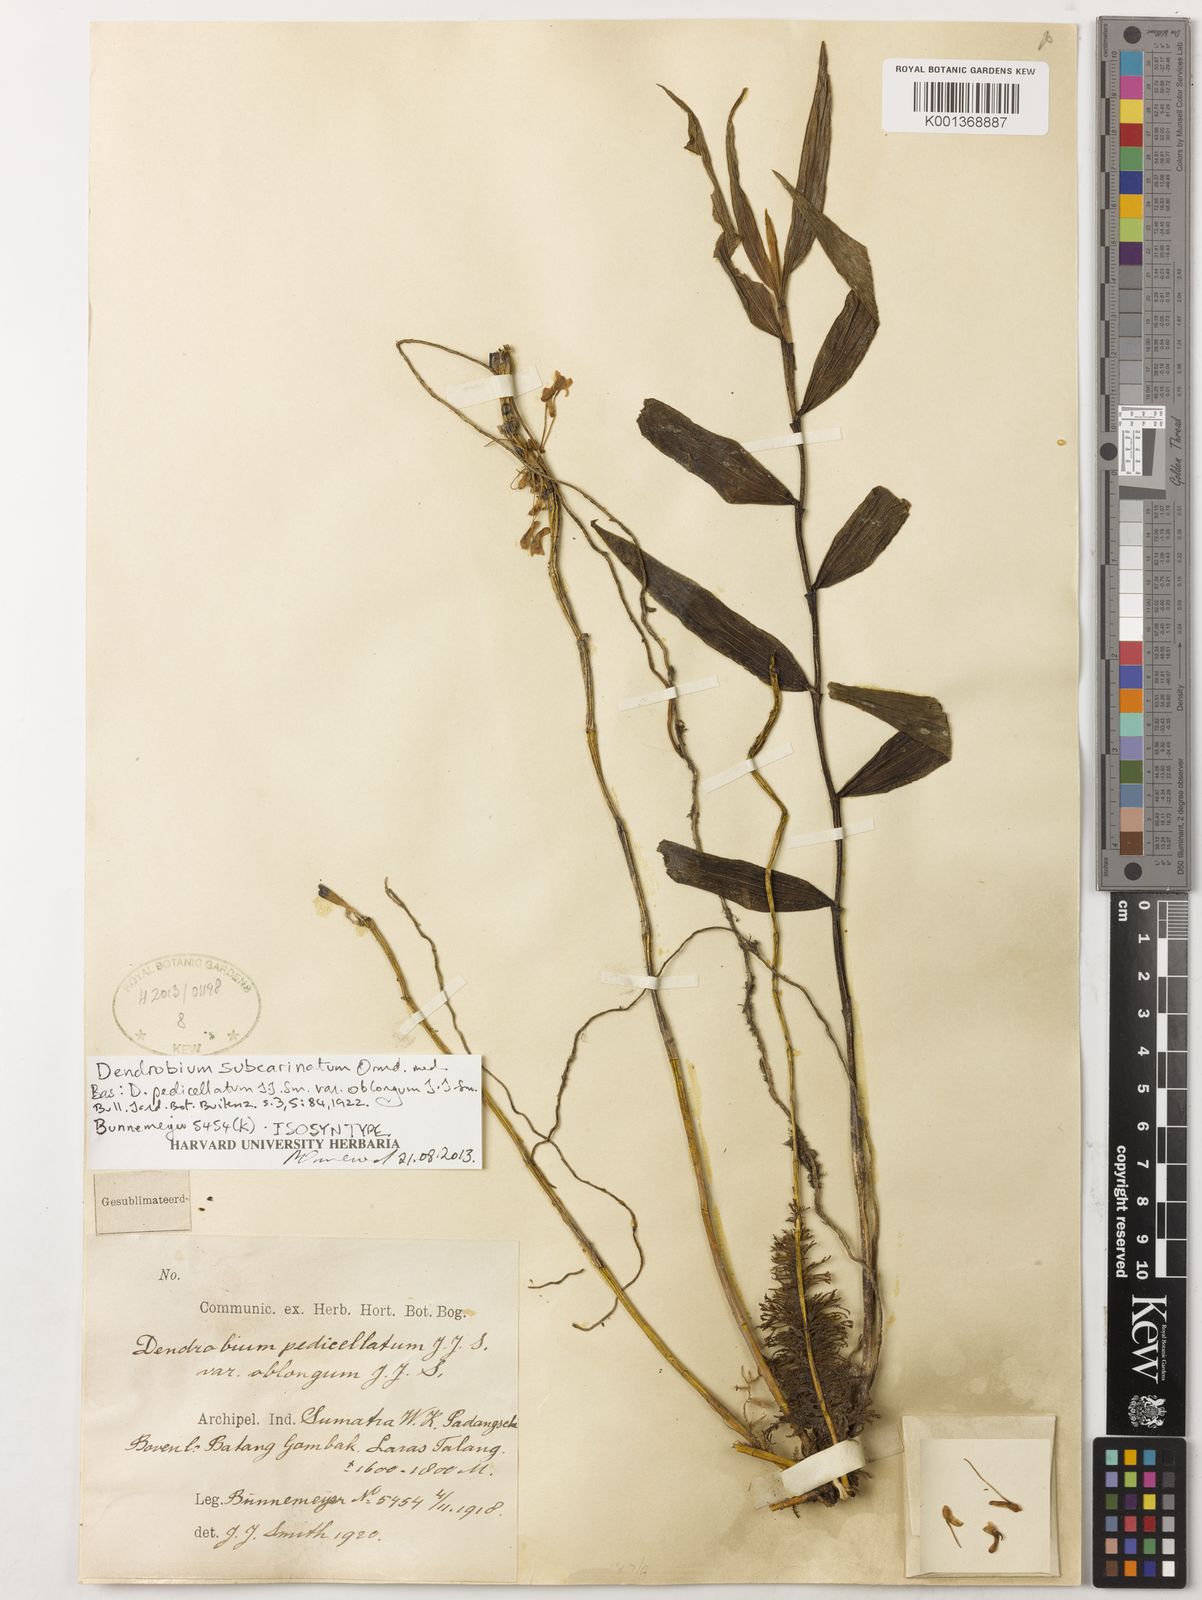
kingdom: Plantae
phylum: Tracheophyta
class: Liliopsida
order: Asparagales
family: Orchidaceae
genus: Dendrobium
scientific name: Dendrobium subcarinatum
